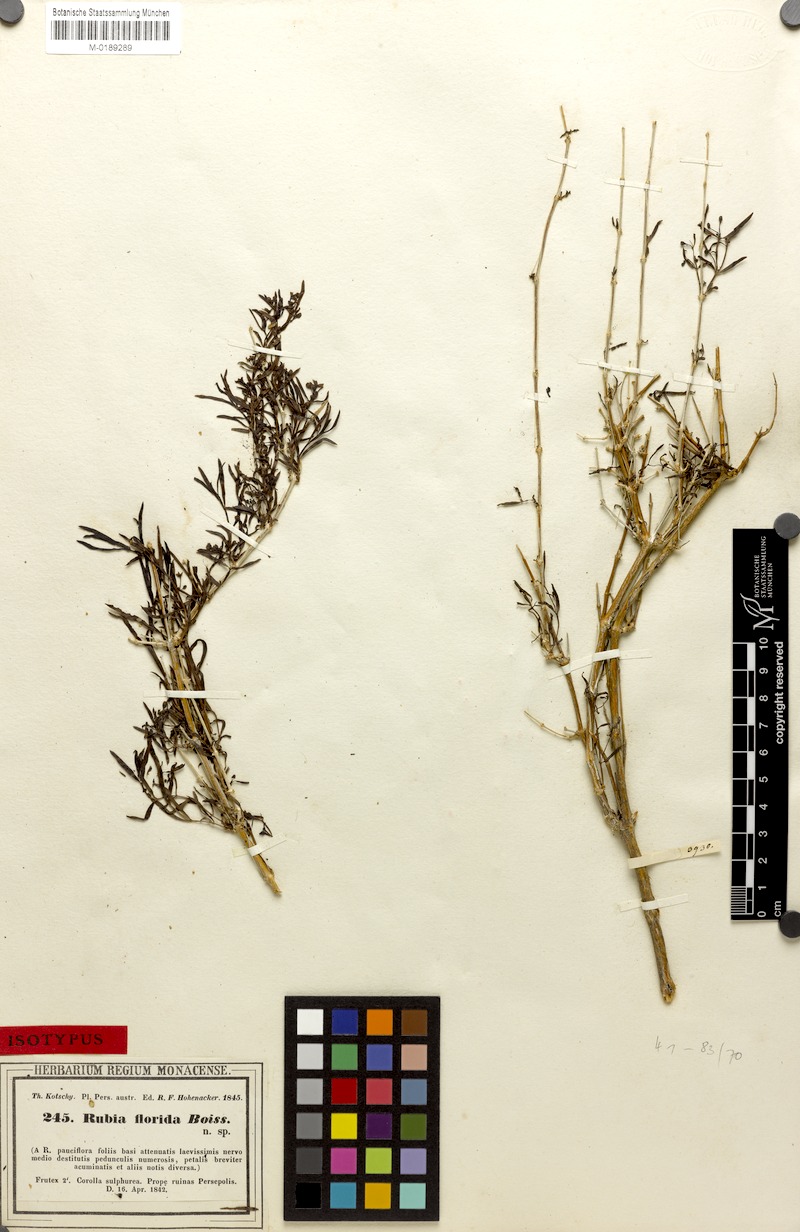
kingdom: Plantae
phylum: Tracheophyta
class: Magnoliopsida
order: Gentianales
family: Rubiaceae
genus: Rubia
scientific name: Rubia florida
